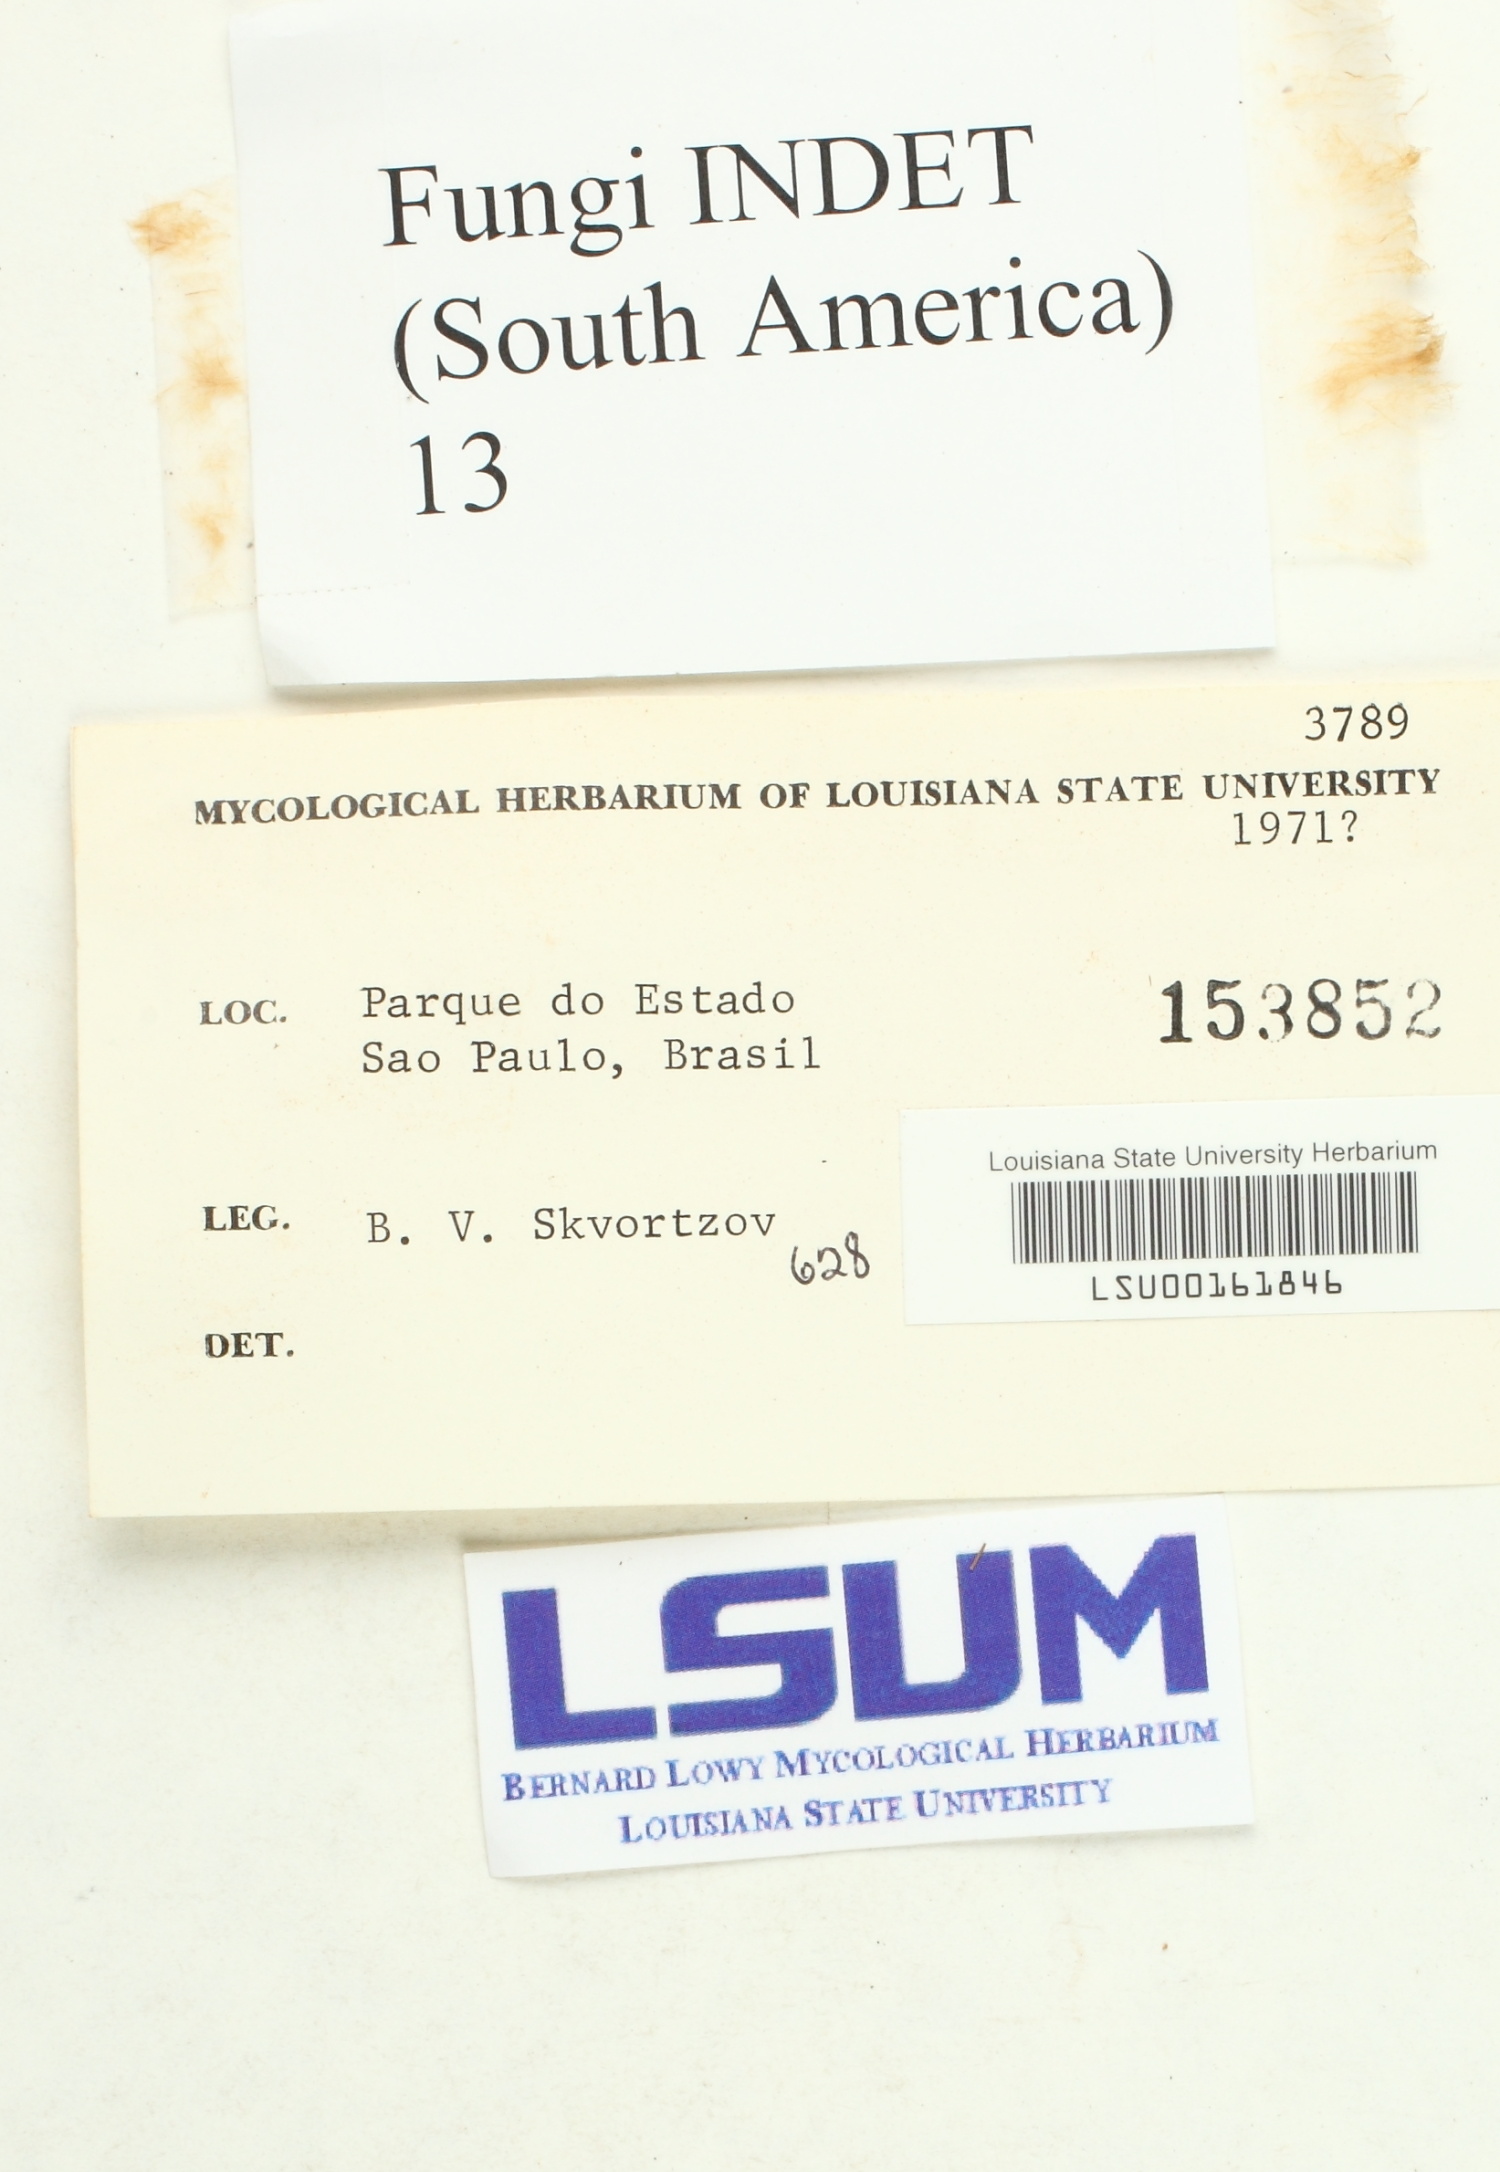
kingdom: Fungi
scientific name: Fungi
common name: Fungi
